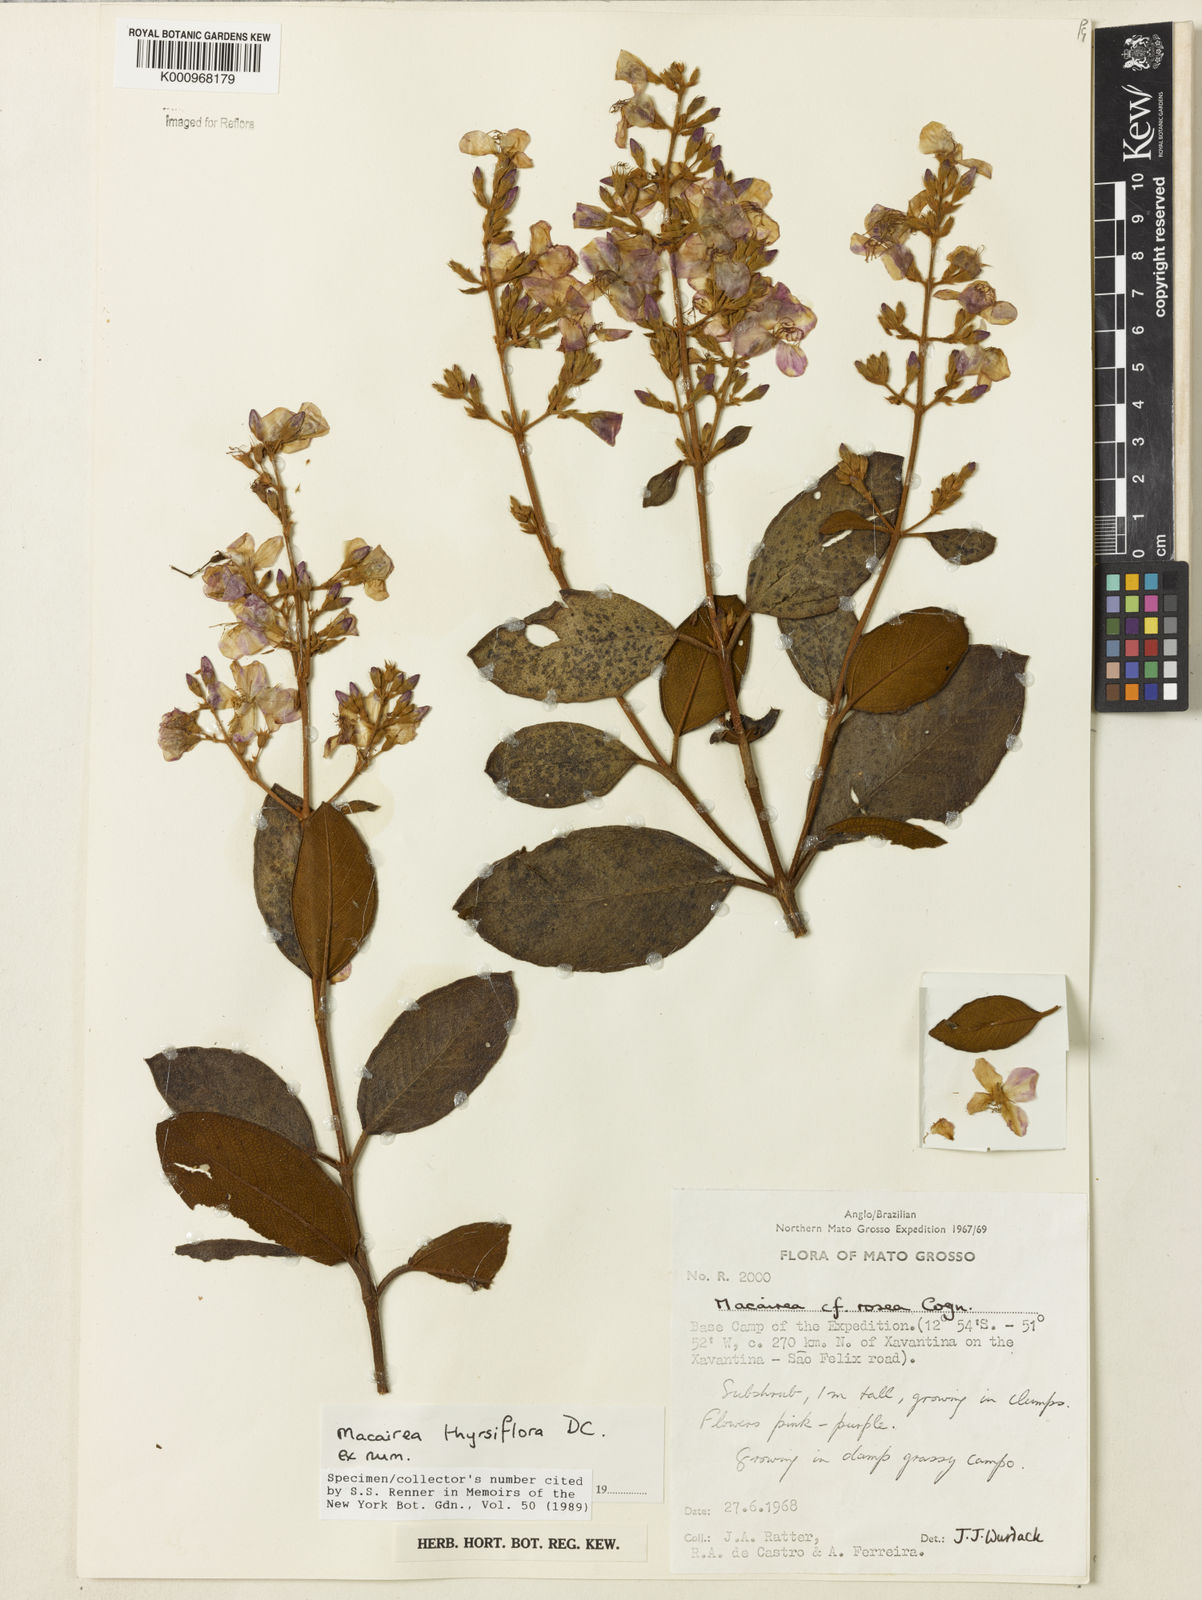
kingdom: Plantae
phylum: Tracheophyta
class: Magnoliopsida
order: Myrtales
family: Melastomataceae
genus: Macairea
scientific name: Macairea thyrsiflora
